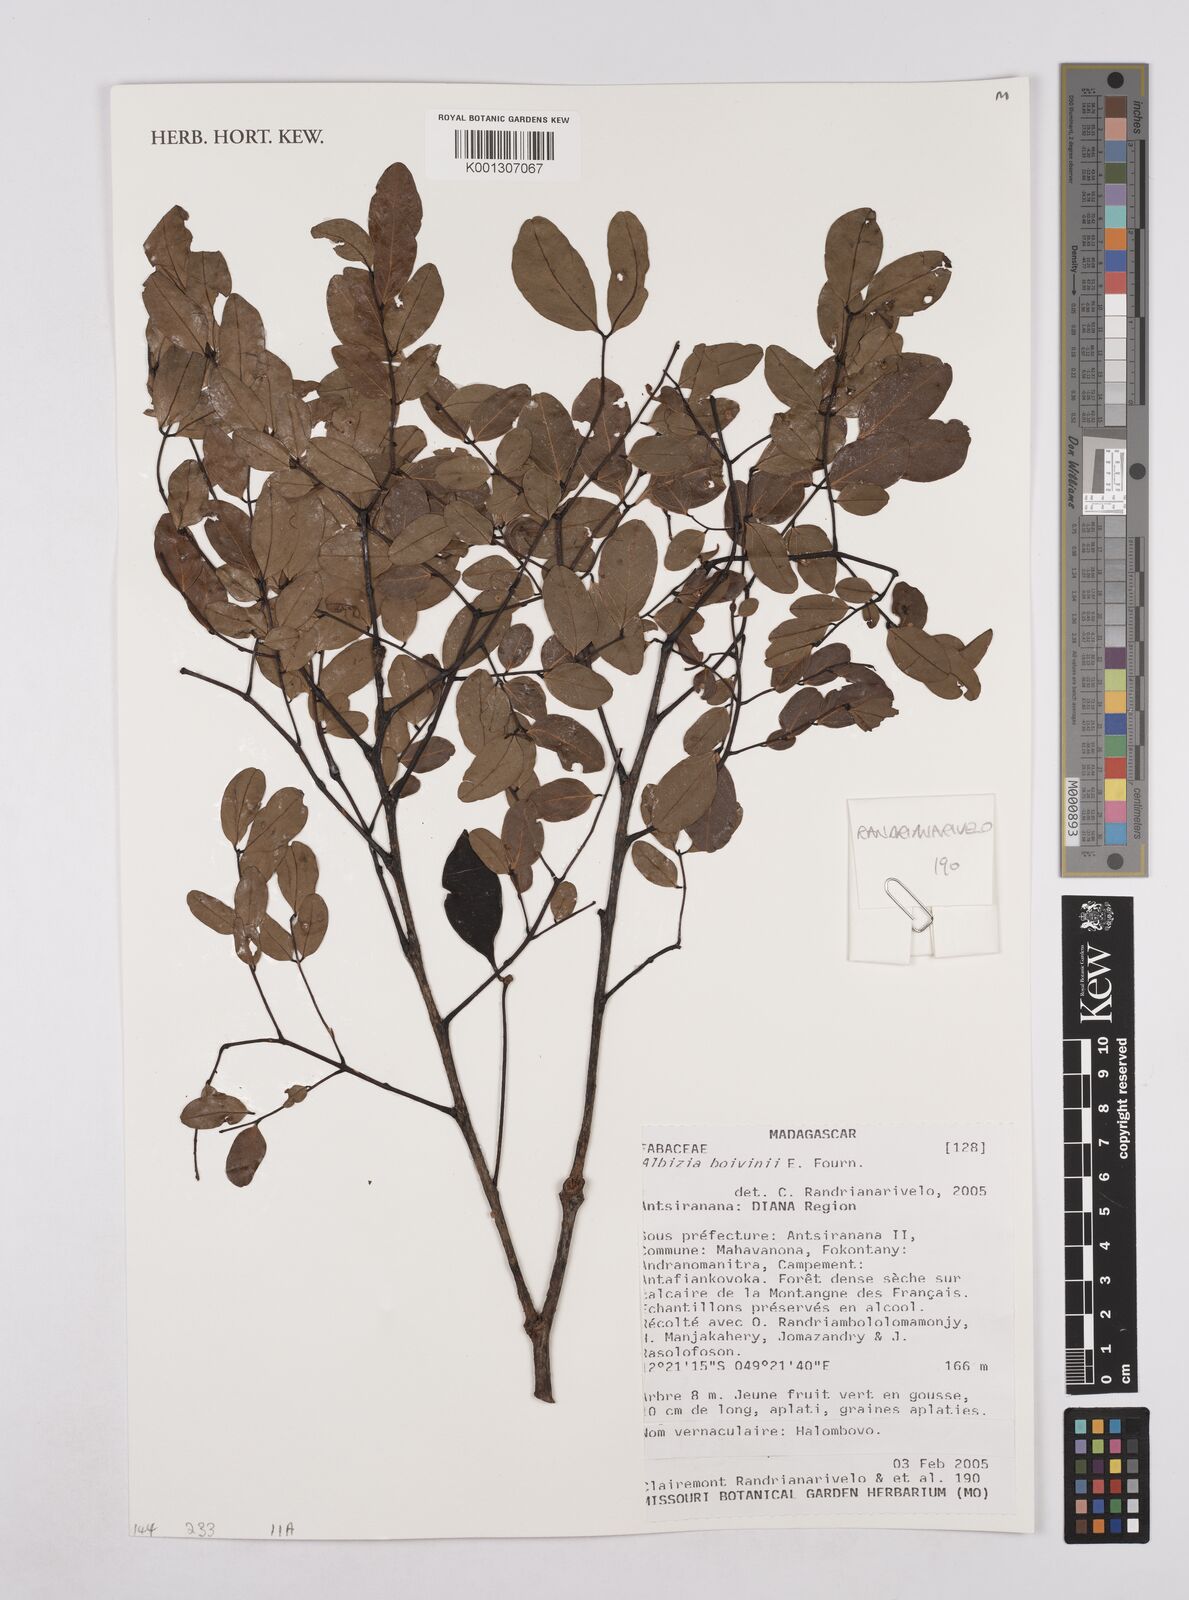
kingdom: Plantae
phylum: Tracheophyta
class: Magnoliopsida
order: Fabales
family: Fabaceae
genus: Albizia
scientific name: Albizia bernieri
